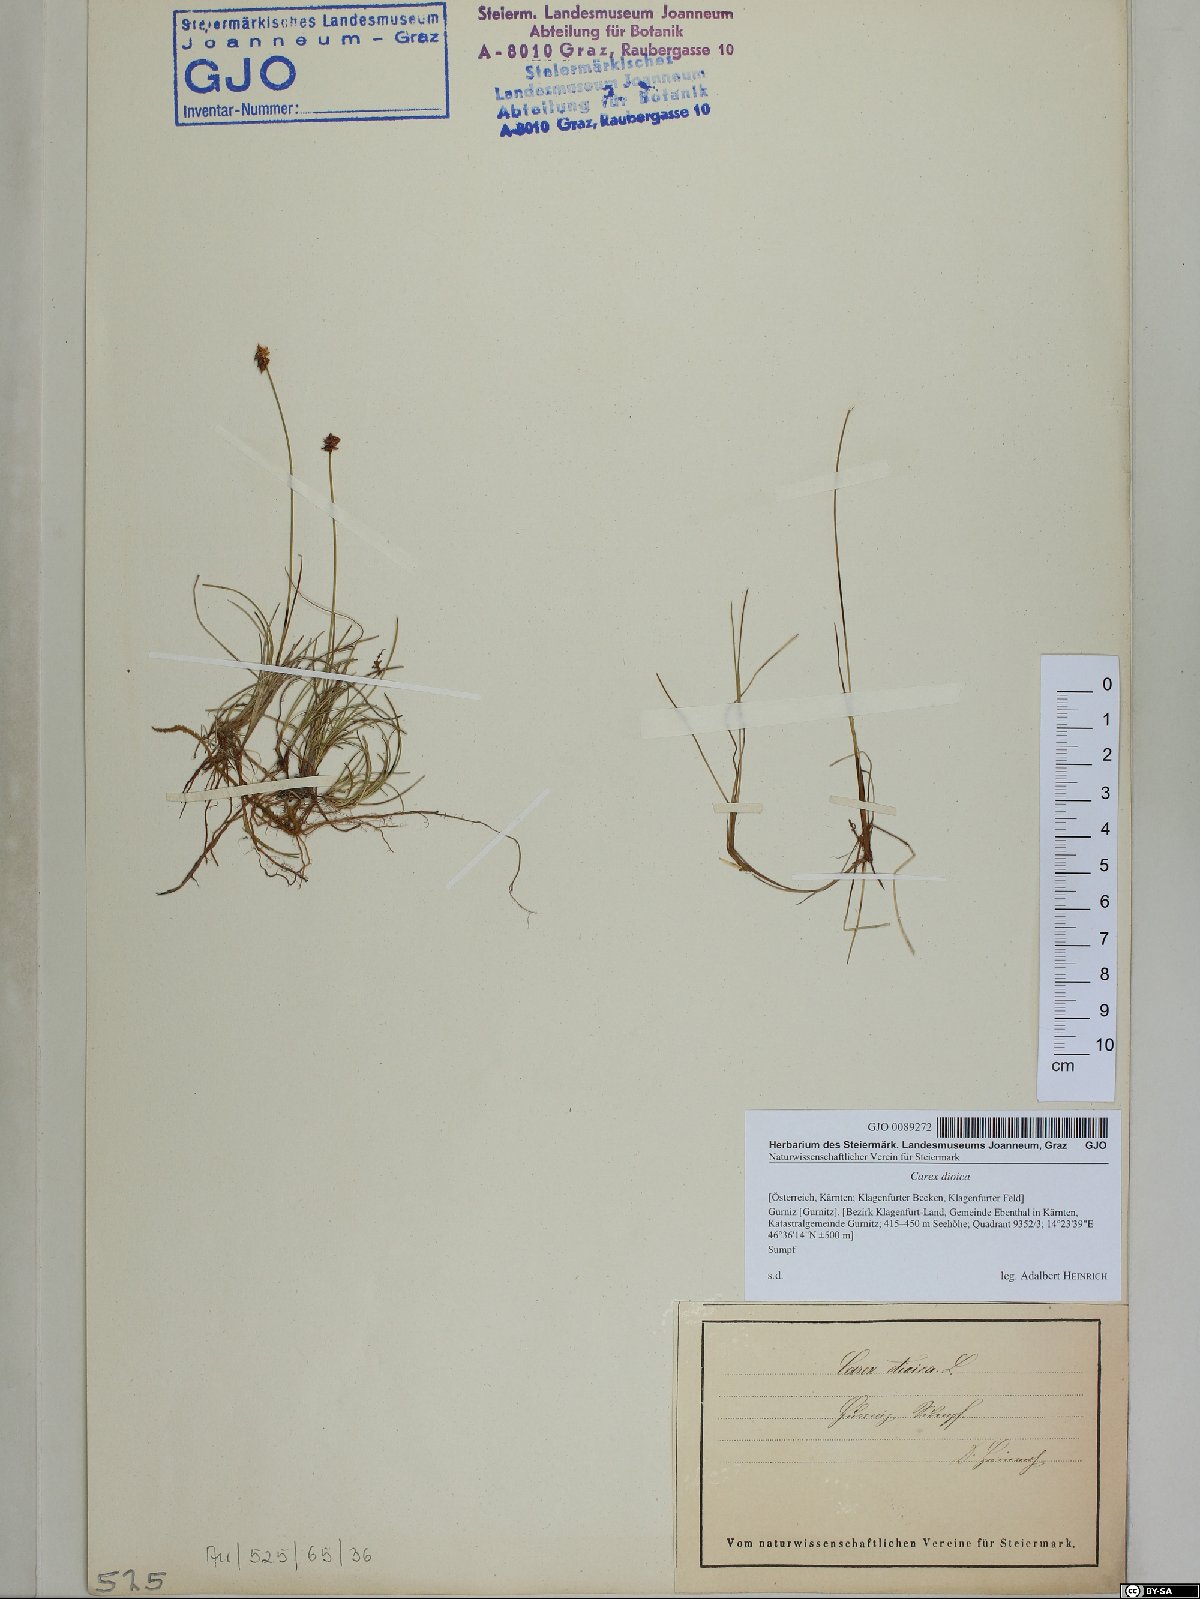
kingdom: Plantae
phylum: Tracheophyta
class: Liliopsida
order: Poales
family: Cyperaceae
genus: Carex
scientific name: Carex dioica
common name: Dioecious sedge
